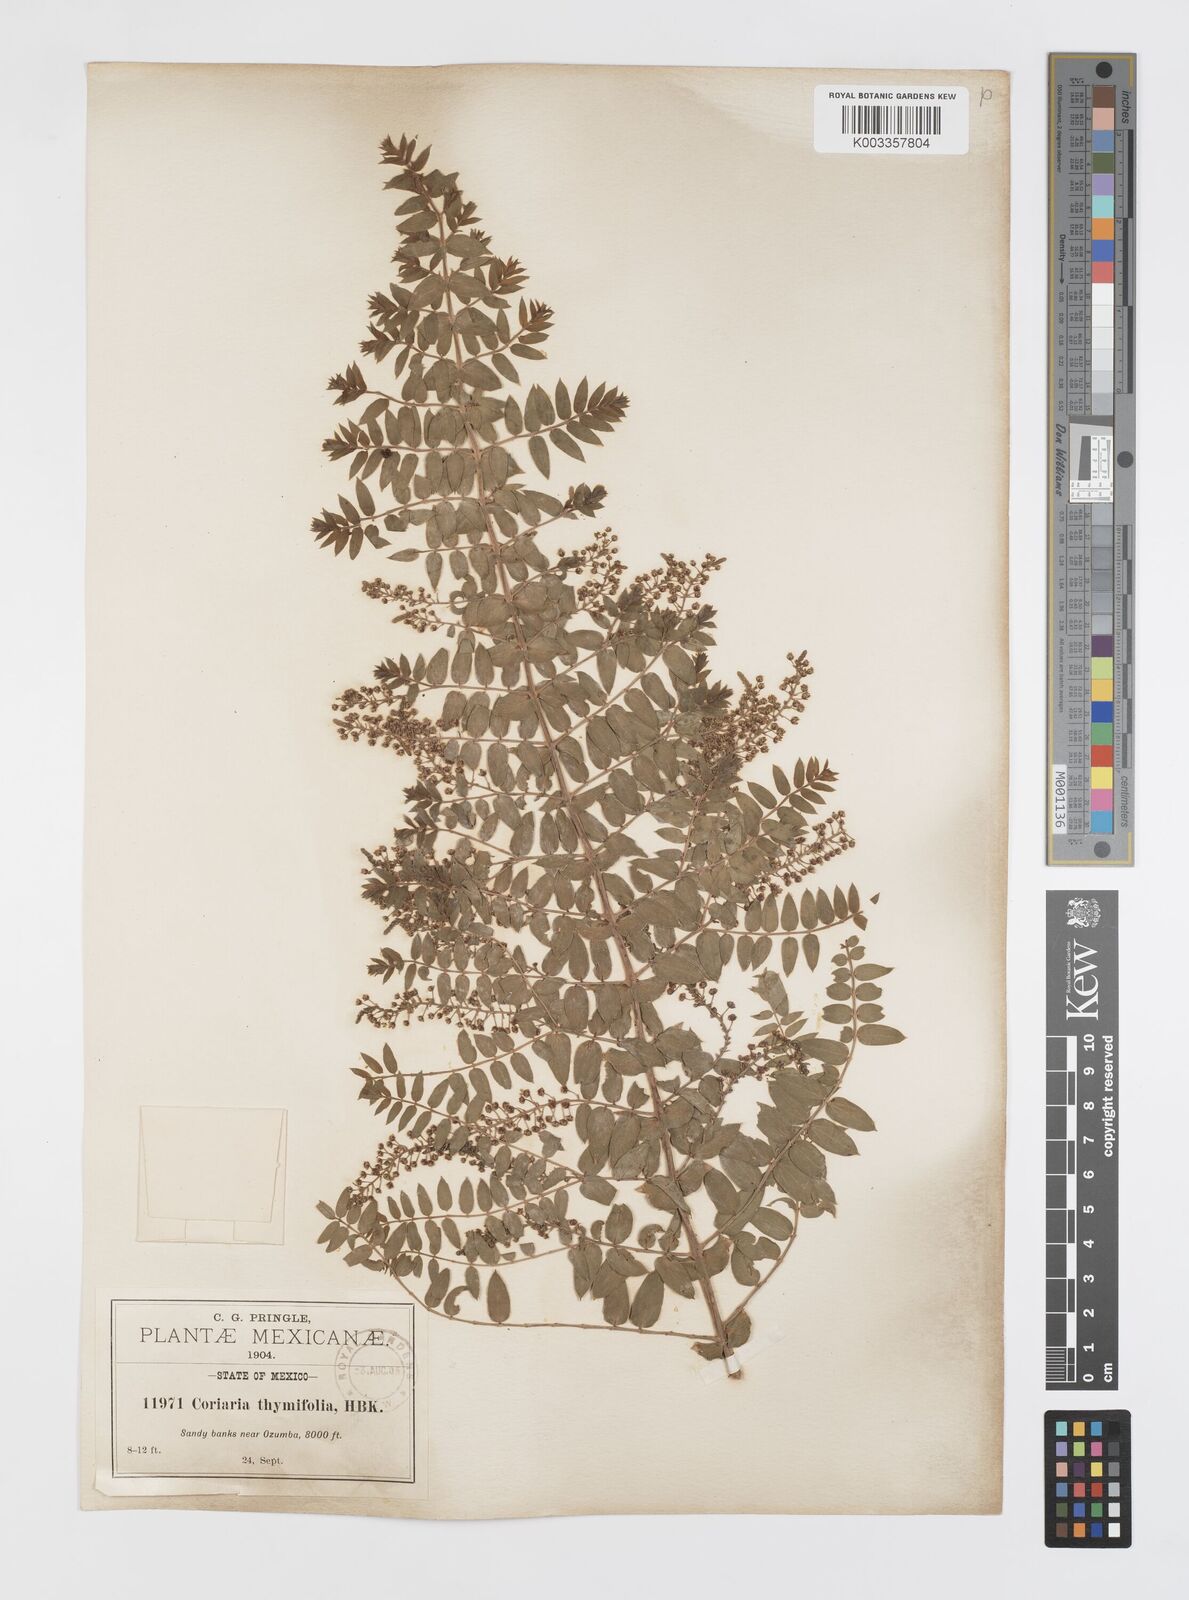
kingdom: Plantae
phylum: Tracheophyta
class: Magnoliopsida
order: Cucurbitales
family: Coriariaceae
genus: Coriaria
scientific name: Coriaria microphylla
